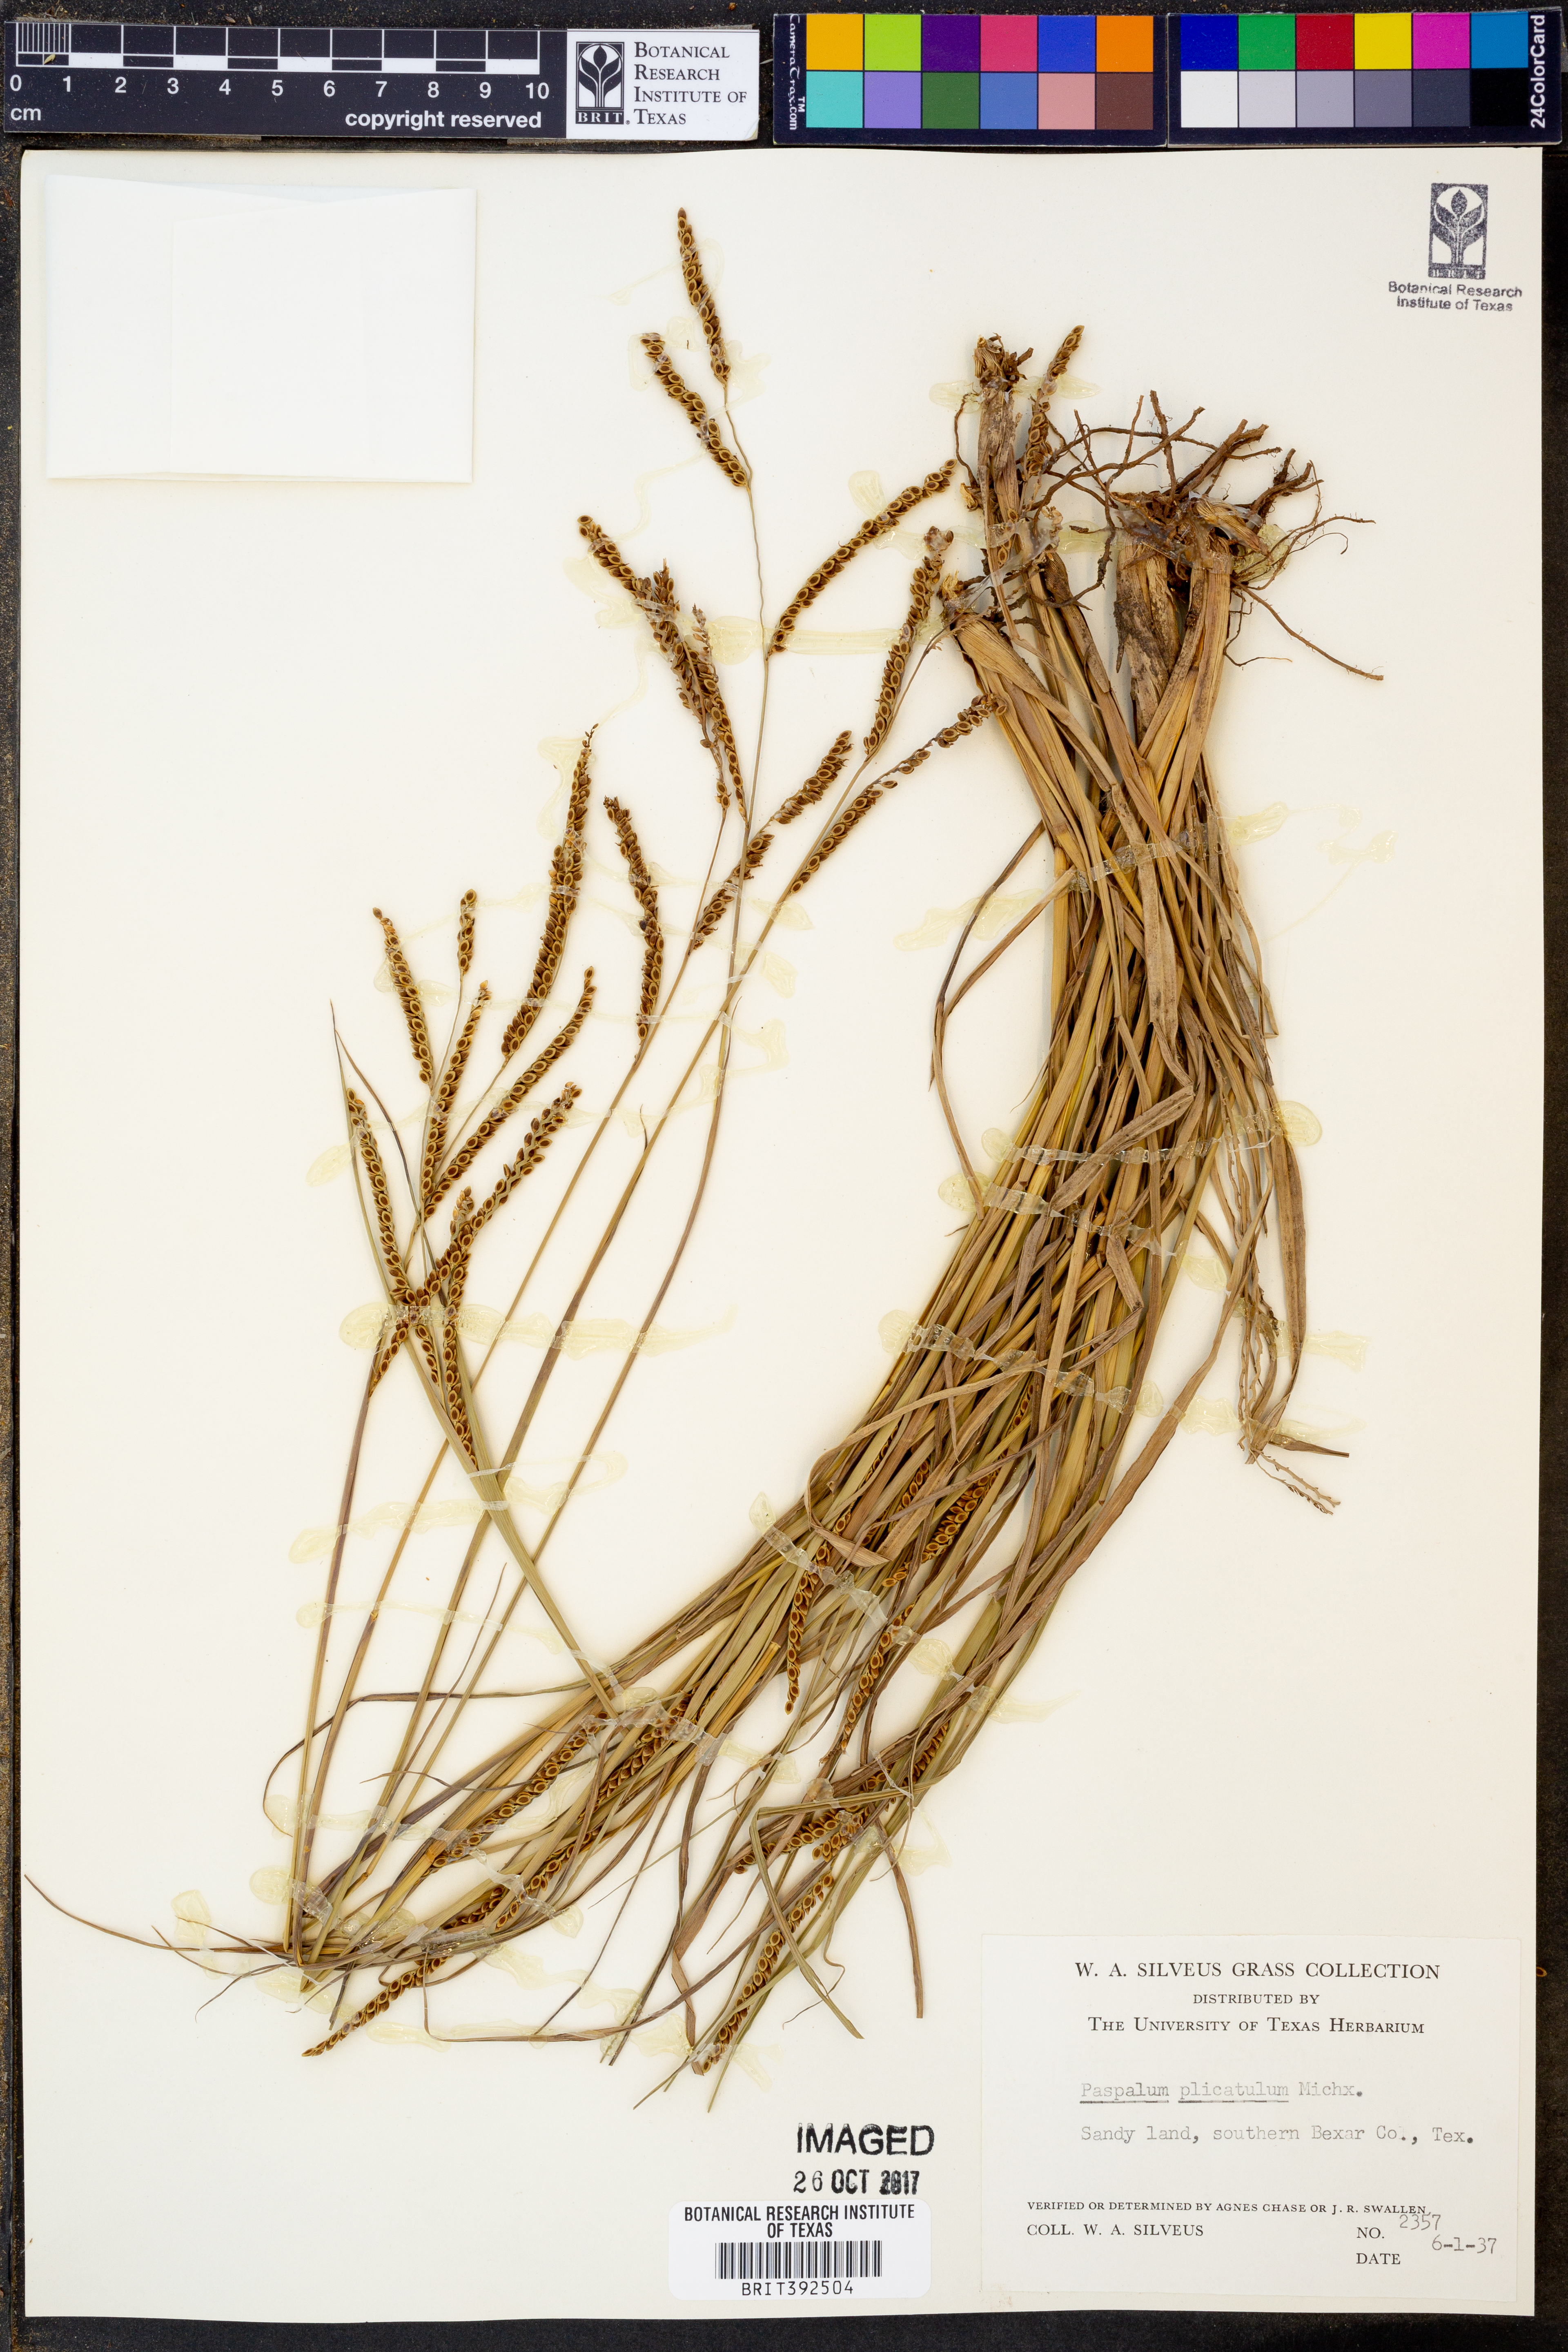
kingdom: Plantae
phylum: Tracheophyta
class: Liliopsida
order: Poales
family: Poaceae
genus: Paspalum
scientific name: Paspalum plicatulum
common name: Top paspalum
